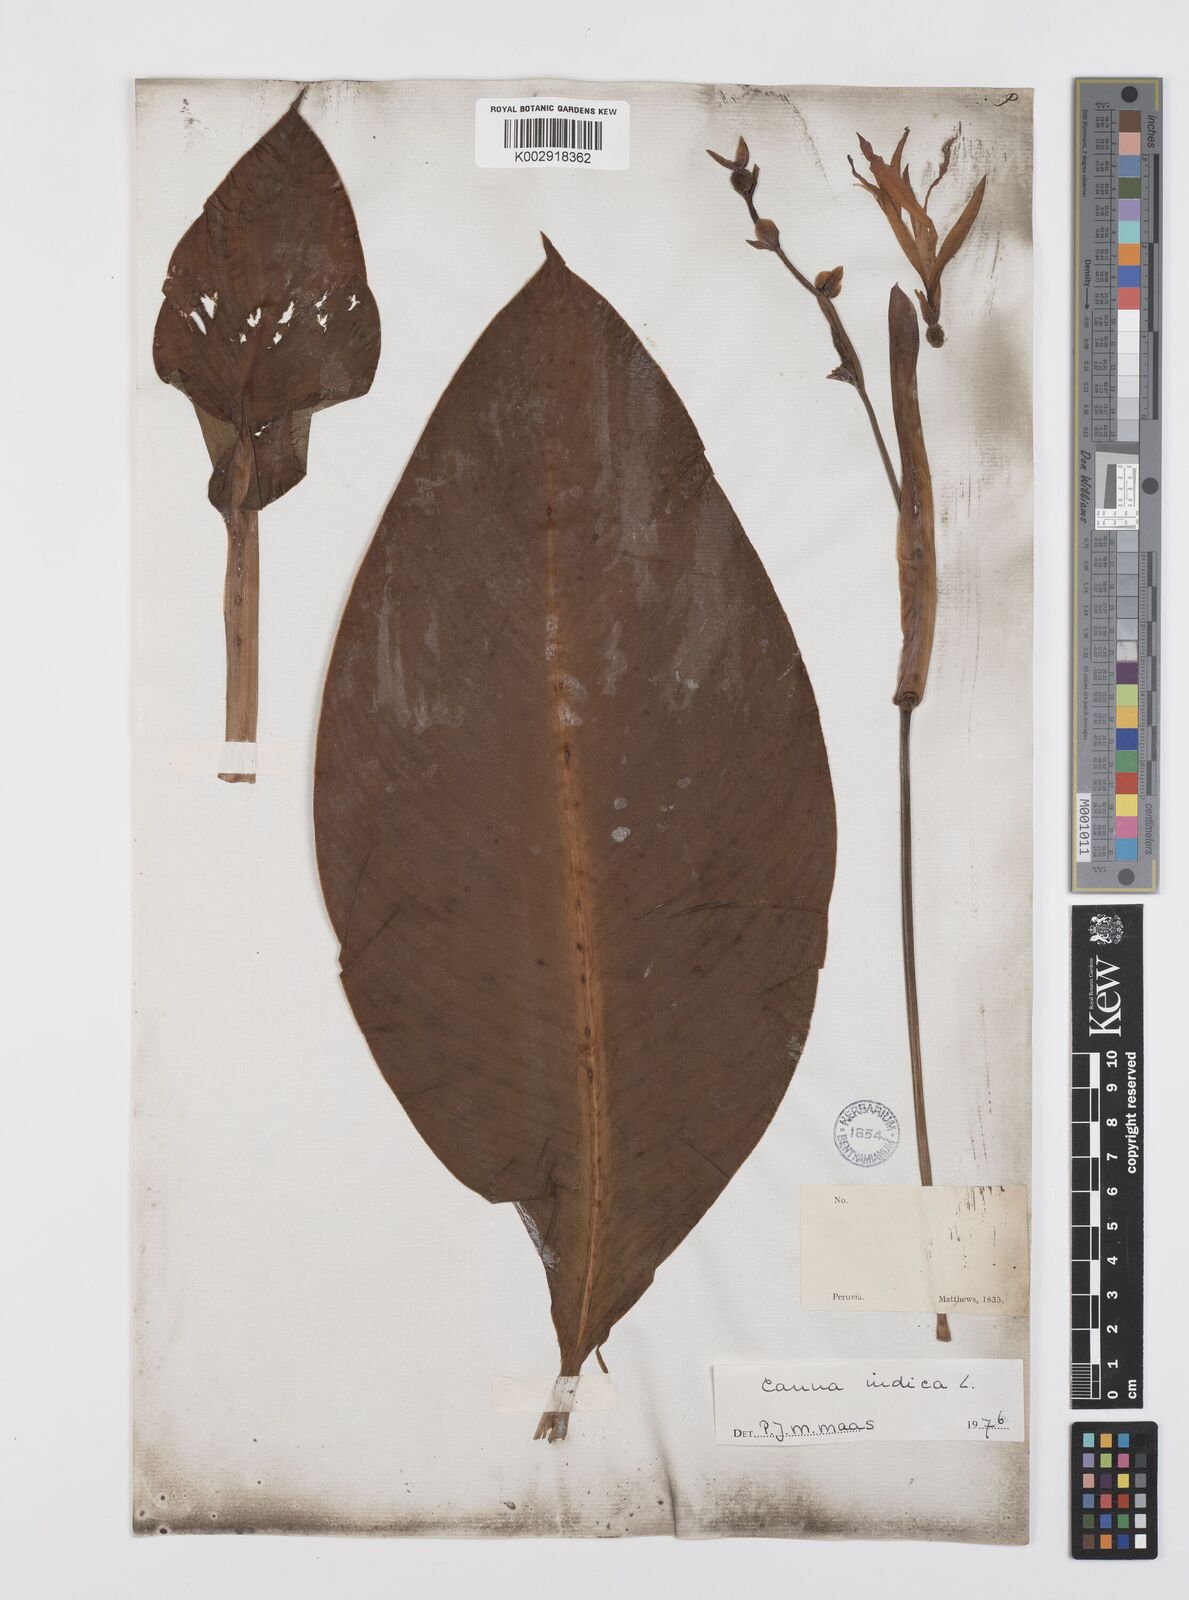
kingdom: Plantae
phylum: Tracheophyta
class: Liliopsida
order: Zingiberales
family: Cannaceae
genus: Canna
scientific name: Canna indica
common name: Indian shot
